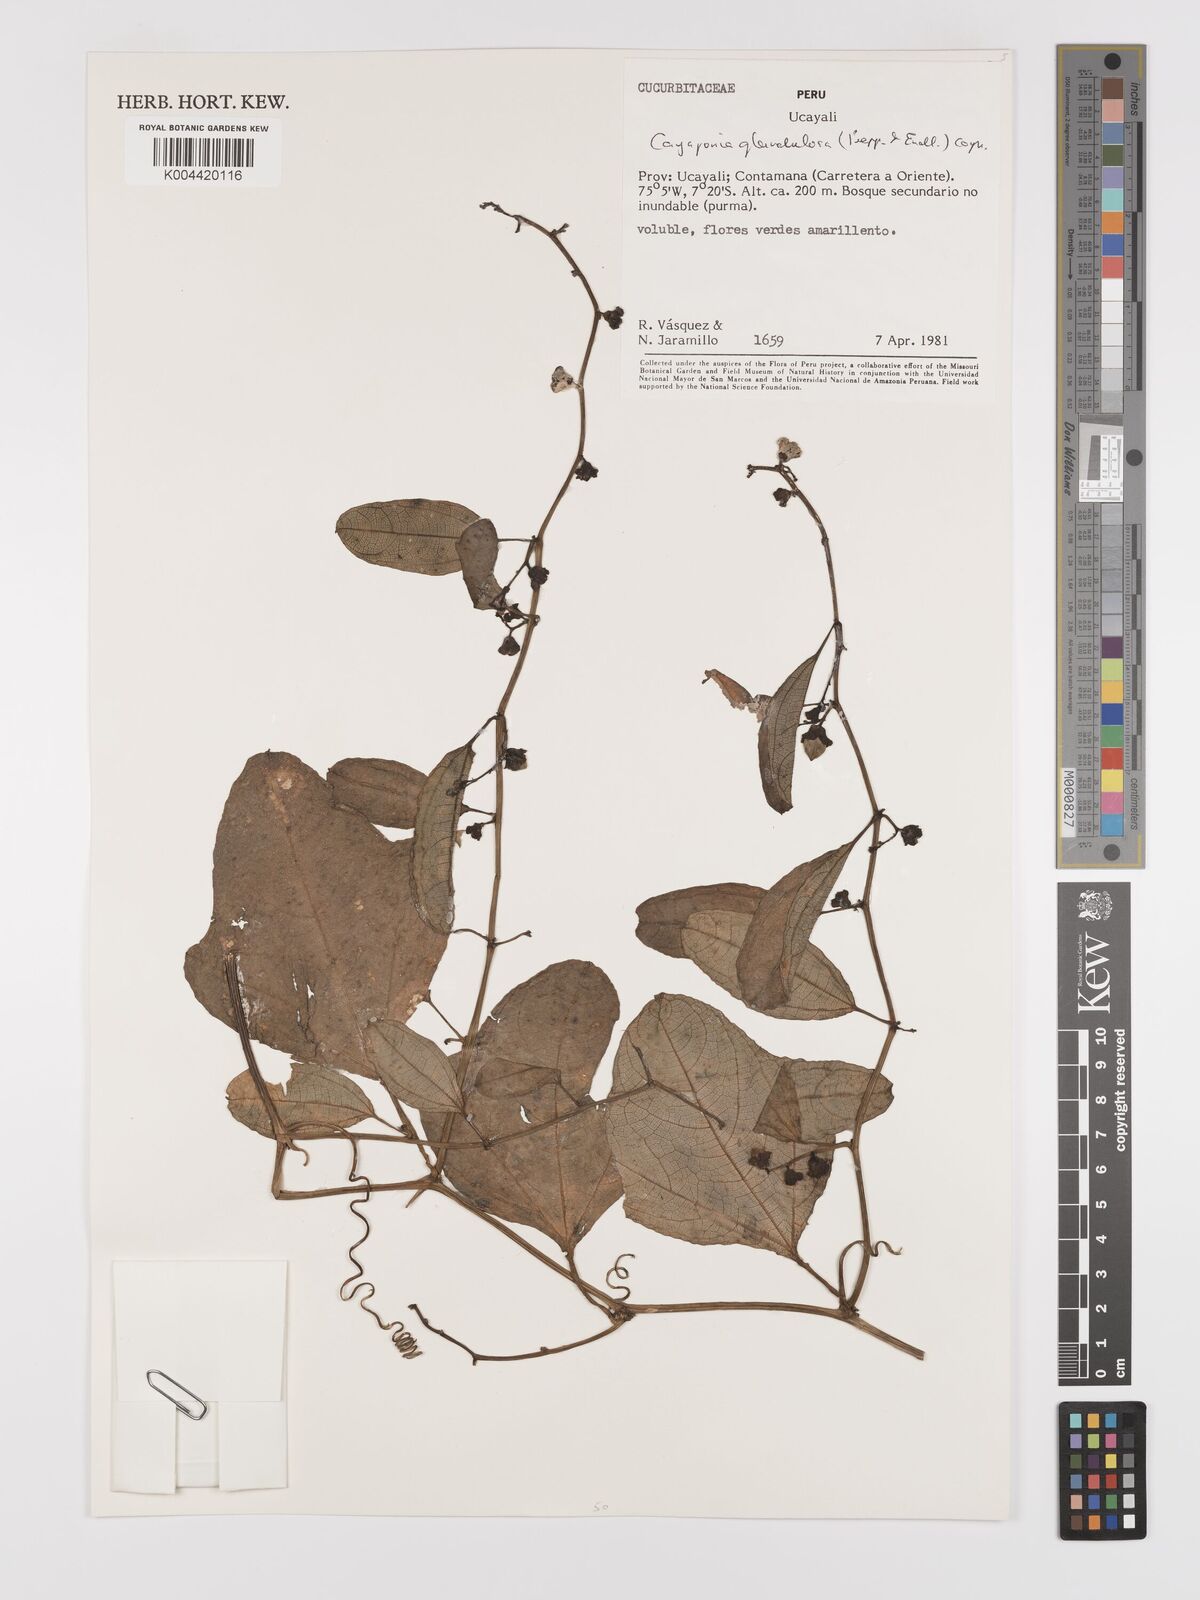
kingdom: Plantae
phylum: Tracheophyta
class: Magnoliopsida
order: Cucurbitales
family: Cucurbitaceae
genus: Cayaponia
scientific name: Cayaponia glandulosa
